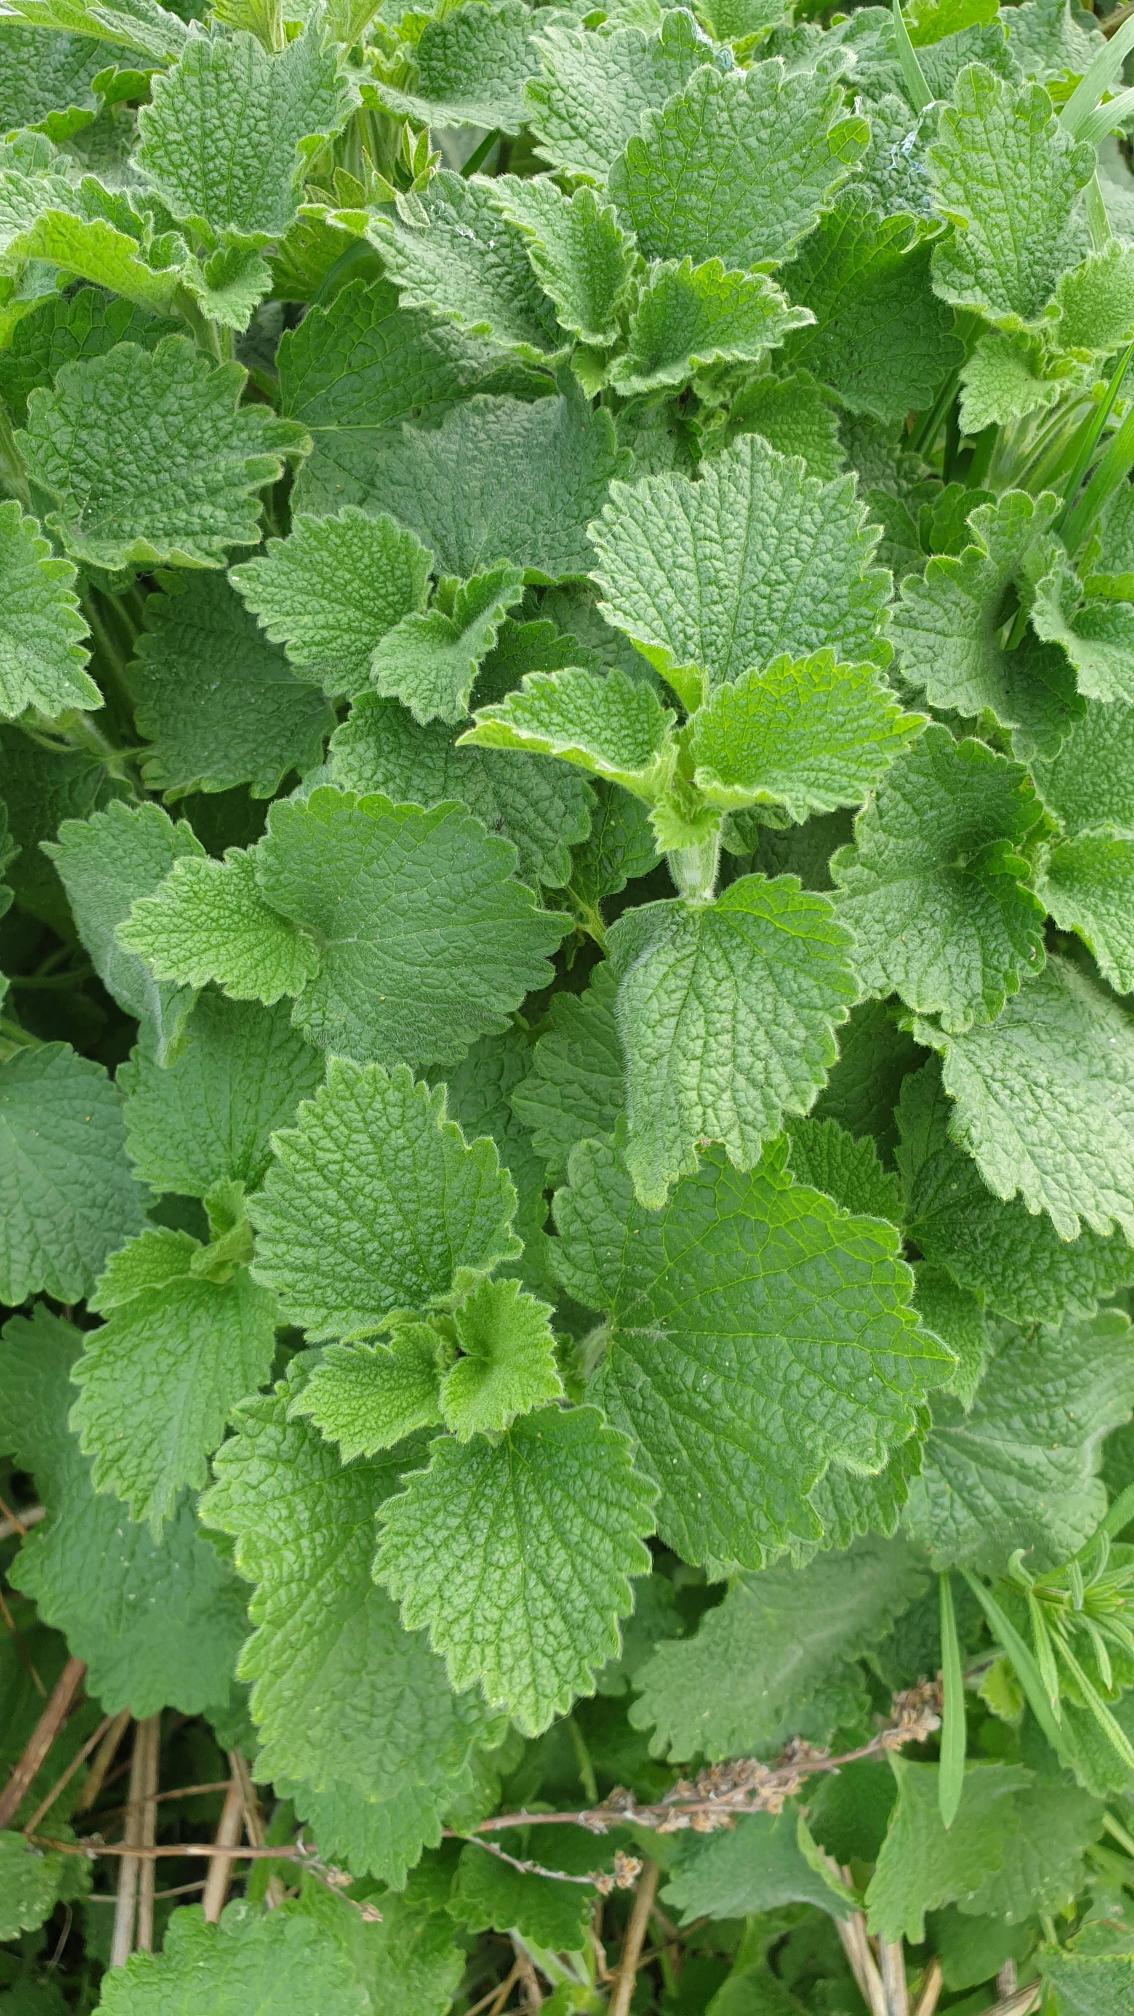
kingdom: Plantae
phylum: Tracheophyta
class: Magnoliopsida
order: Lamiales
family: Lamiaceae
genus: Ballota
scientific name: Ballota nigra
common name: Tandbæger
